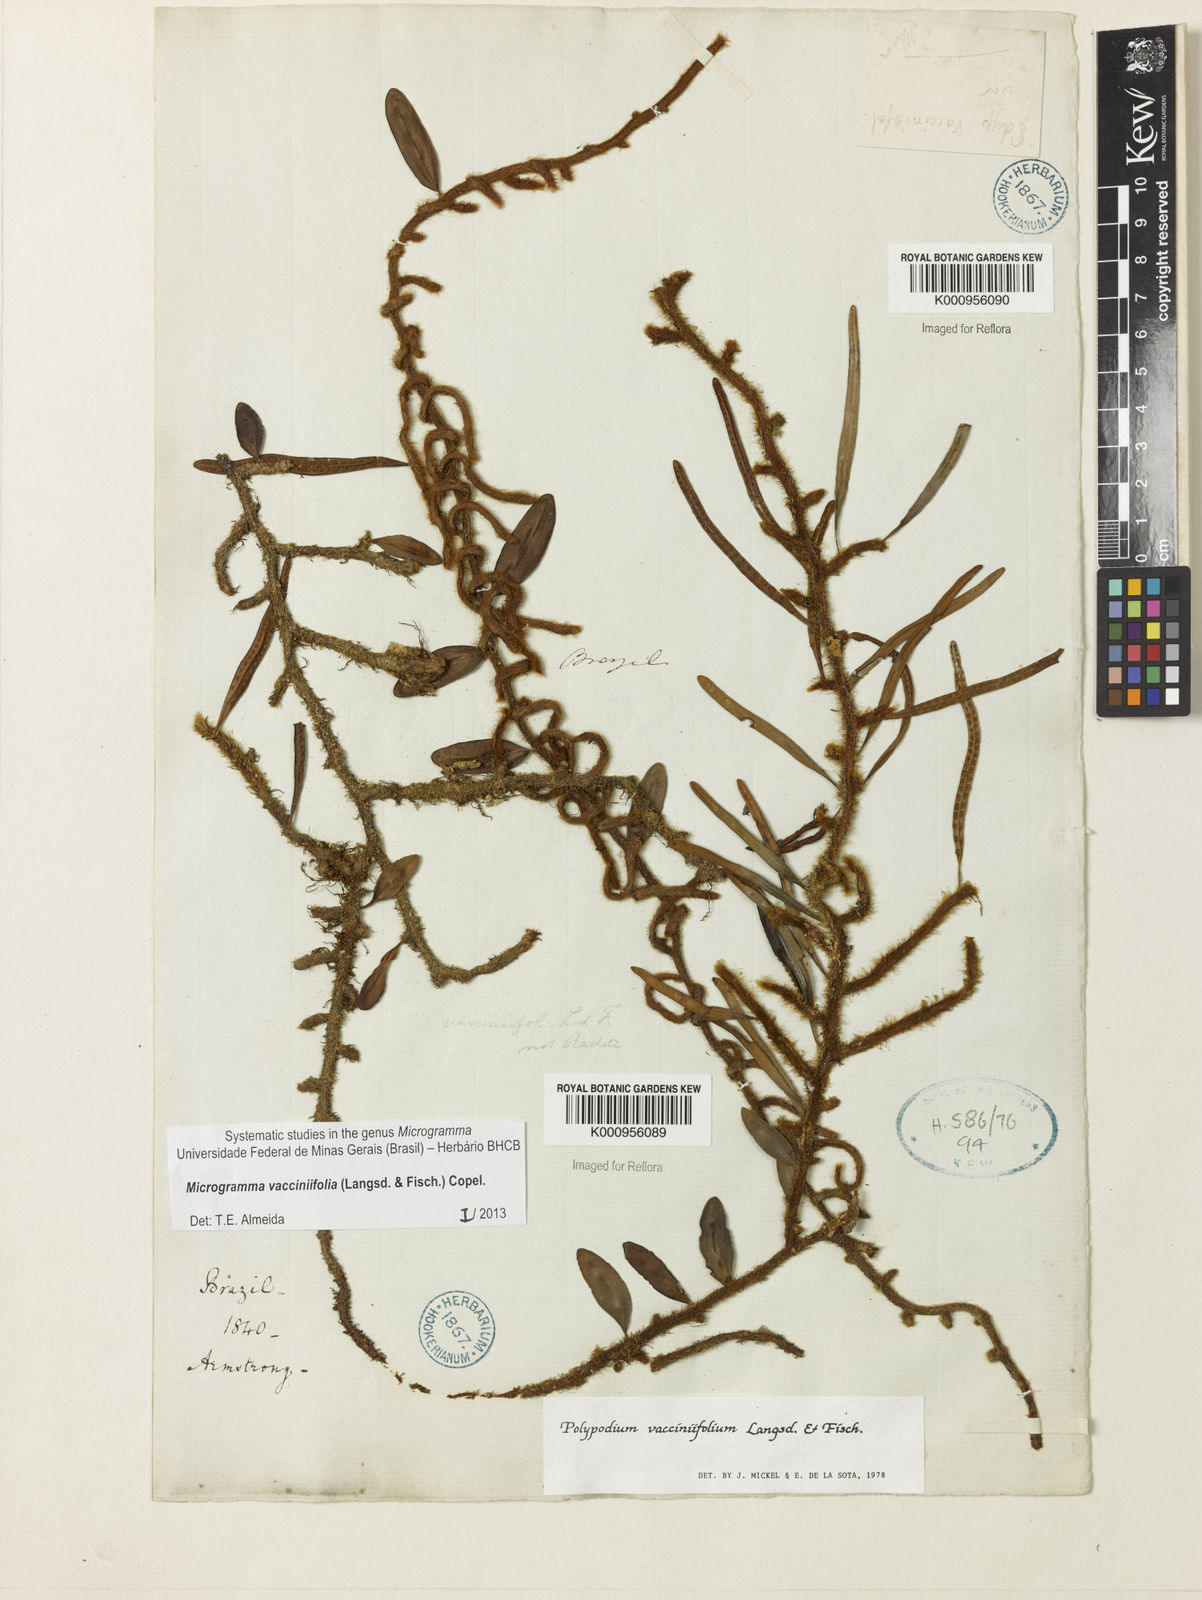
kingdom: Plantae
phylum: Tracheophyta
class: Polypodiopsida
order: Polypodiales
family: Polypodiaceae
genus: Phlebodium
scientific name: Phlebodium
